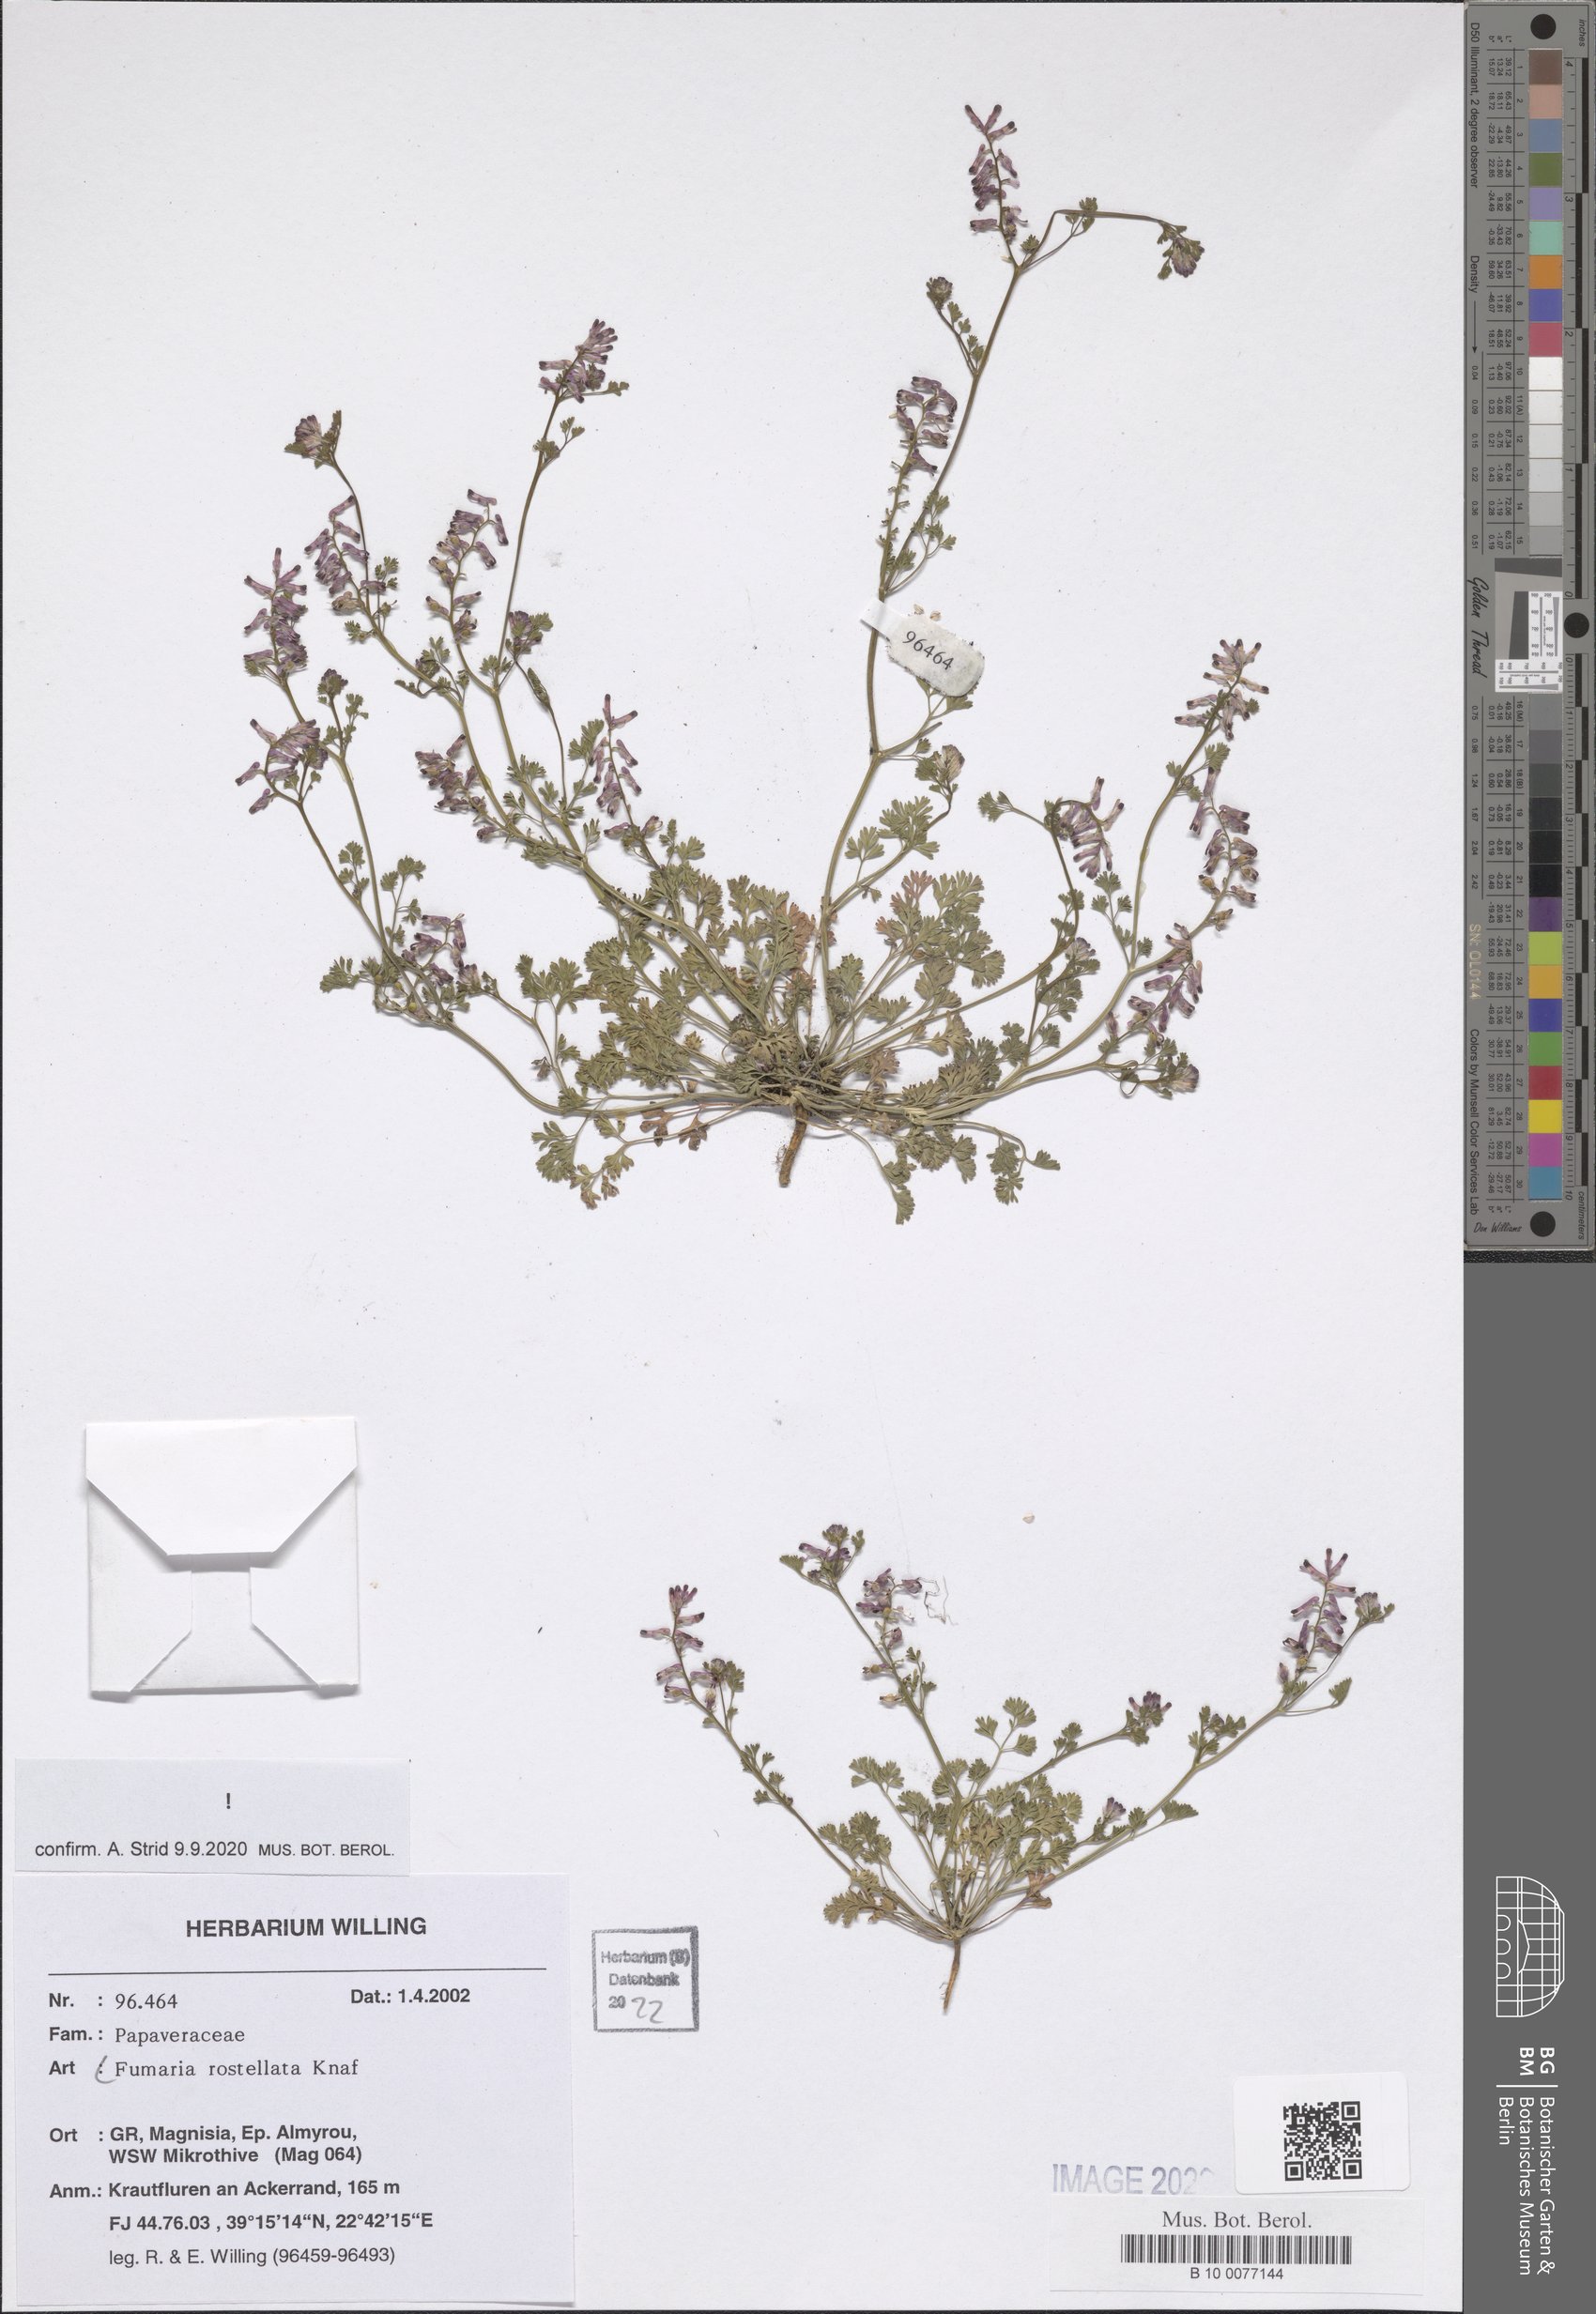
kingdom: Plantae
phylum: Tracheophyta
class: Magnoliopsida
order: Ranunculales
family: Papaveraceae
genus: Fumaria
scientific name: Fumaria rostellata
